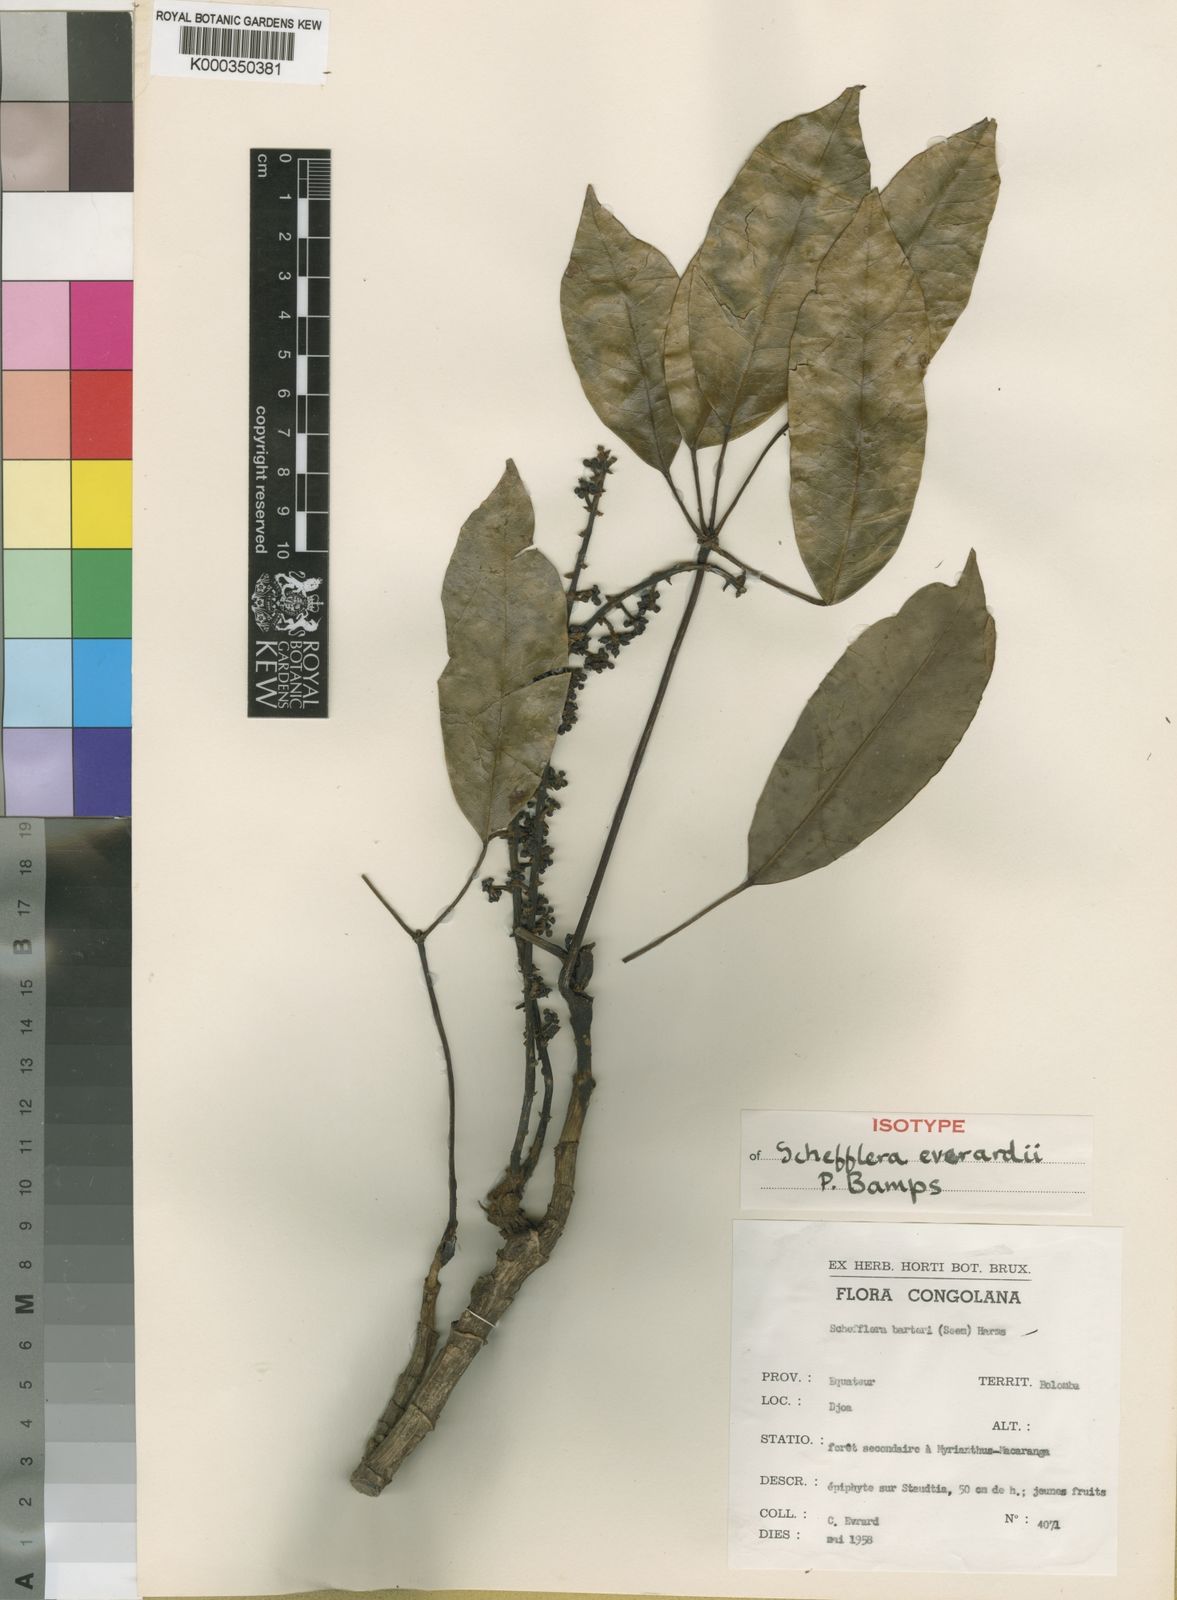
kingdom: Plantae
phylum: Tracheophyta
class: Magnoliopsida
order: Apiales
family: Araliaceae
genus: Astropanax
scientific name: Astropanax evrardii
